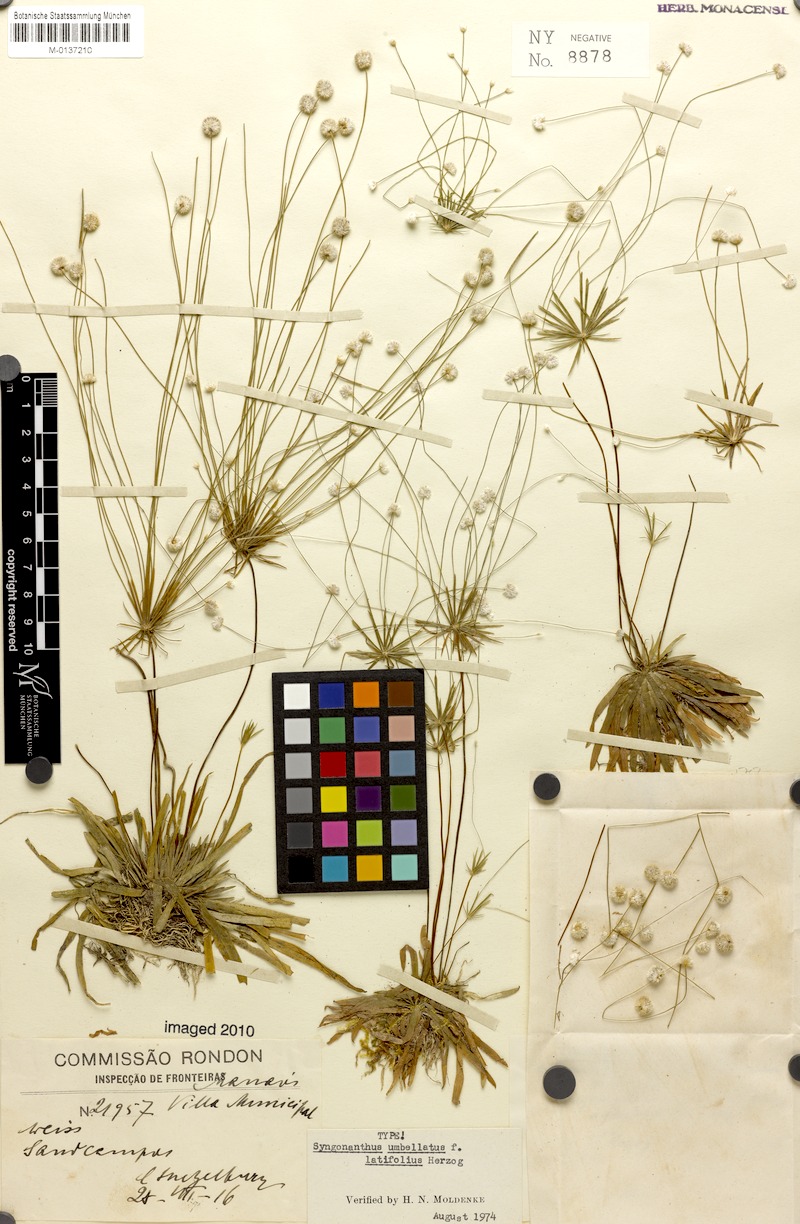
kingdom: Plantae
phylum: Tracheophyta
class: Liliopsida
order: Poales
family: Eriocaulaceae
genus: Syngonanthus
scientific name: Syngonanthus umbellatus
